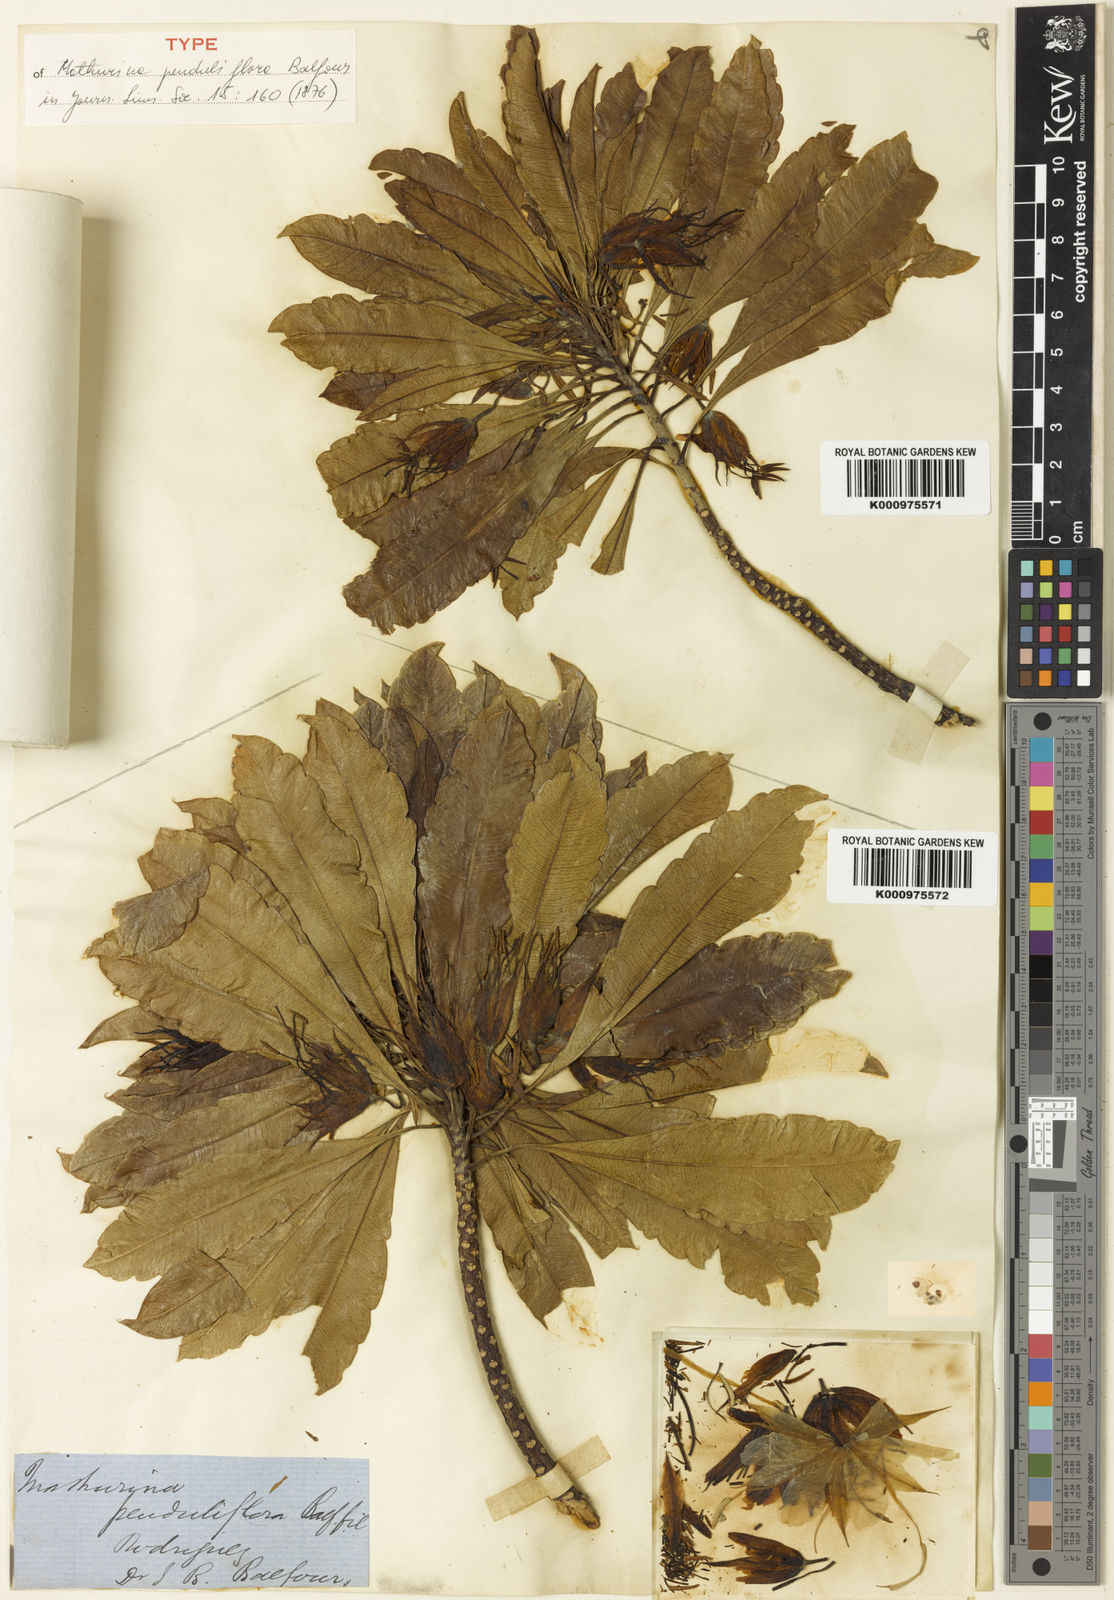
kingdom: Plantae
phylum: Tracheophyta
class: Magnoliopsida
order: Malpighiales
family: Turneraceae
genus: Mathurina
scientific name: Mathurina penduliflora
